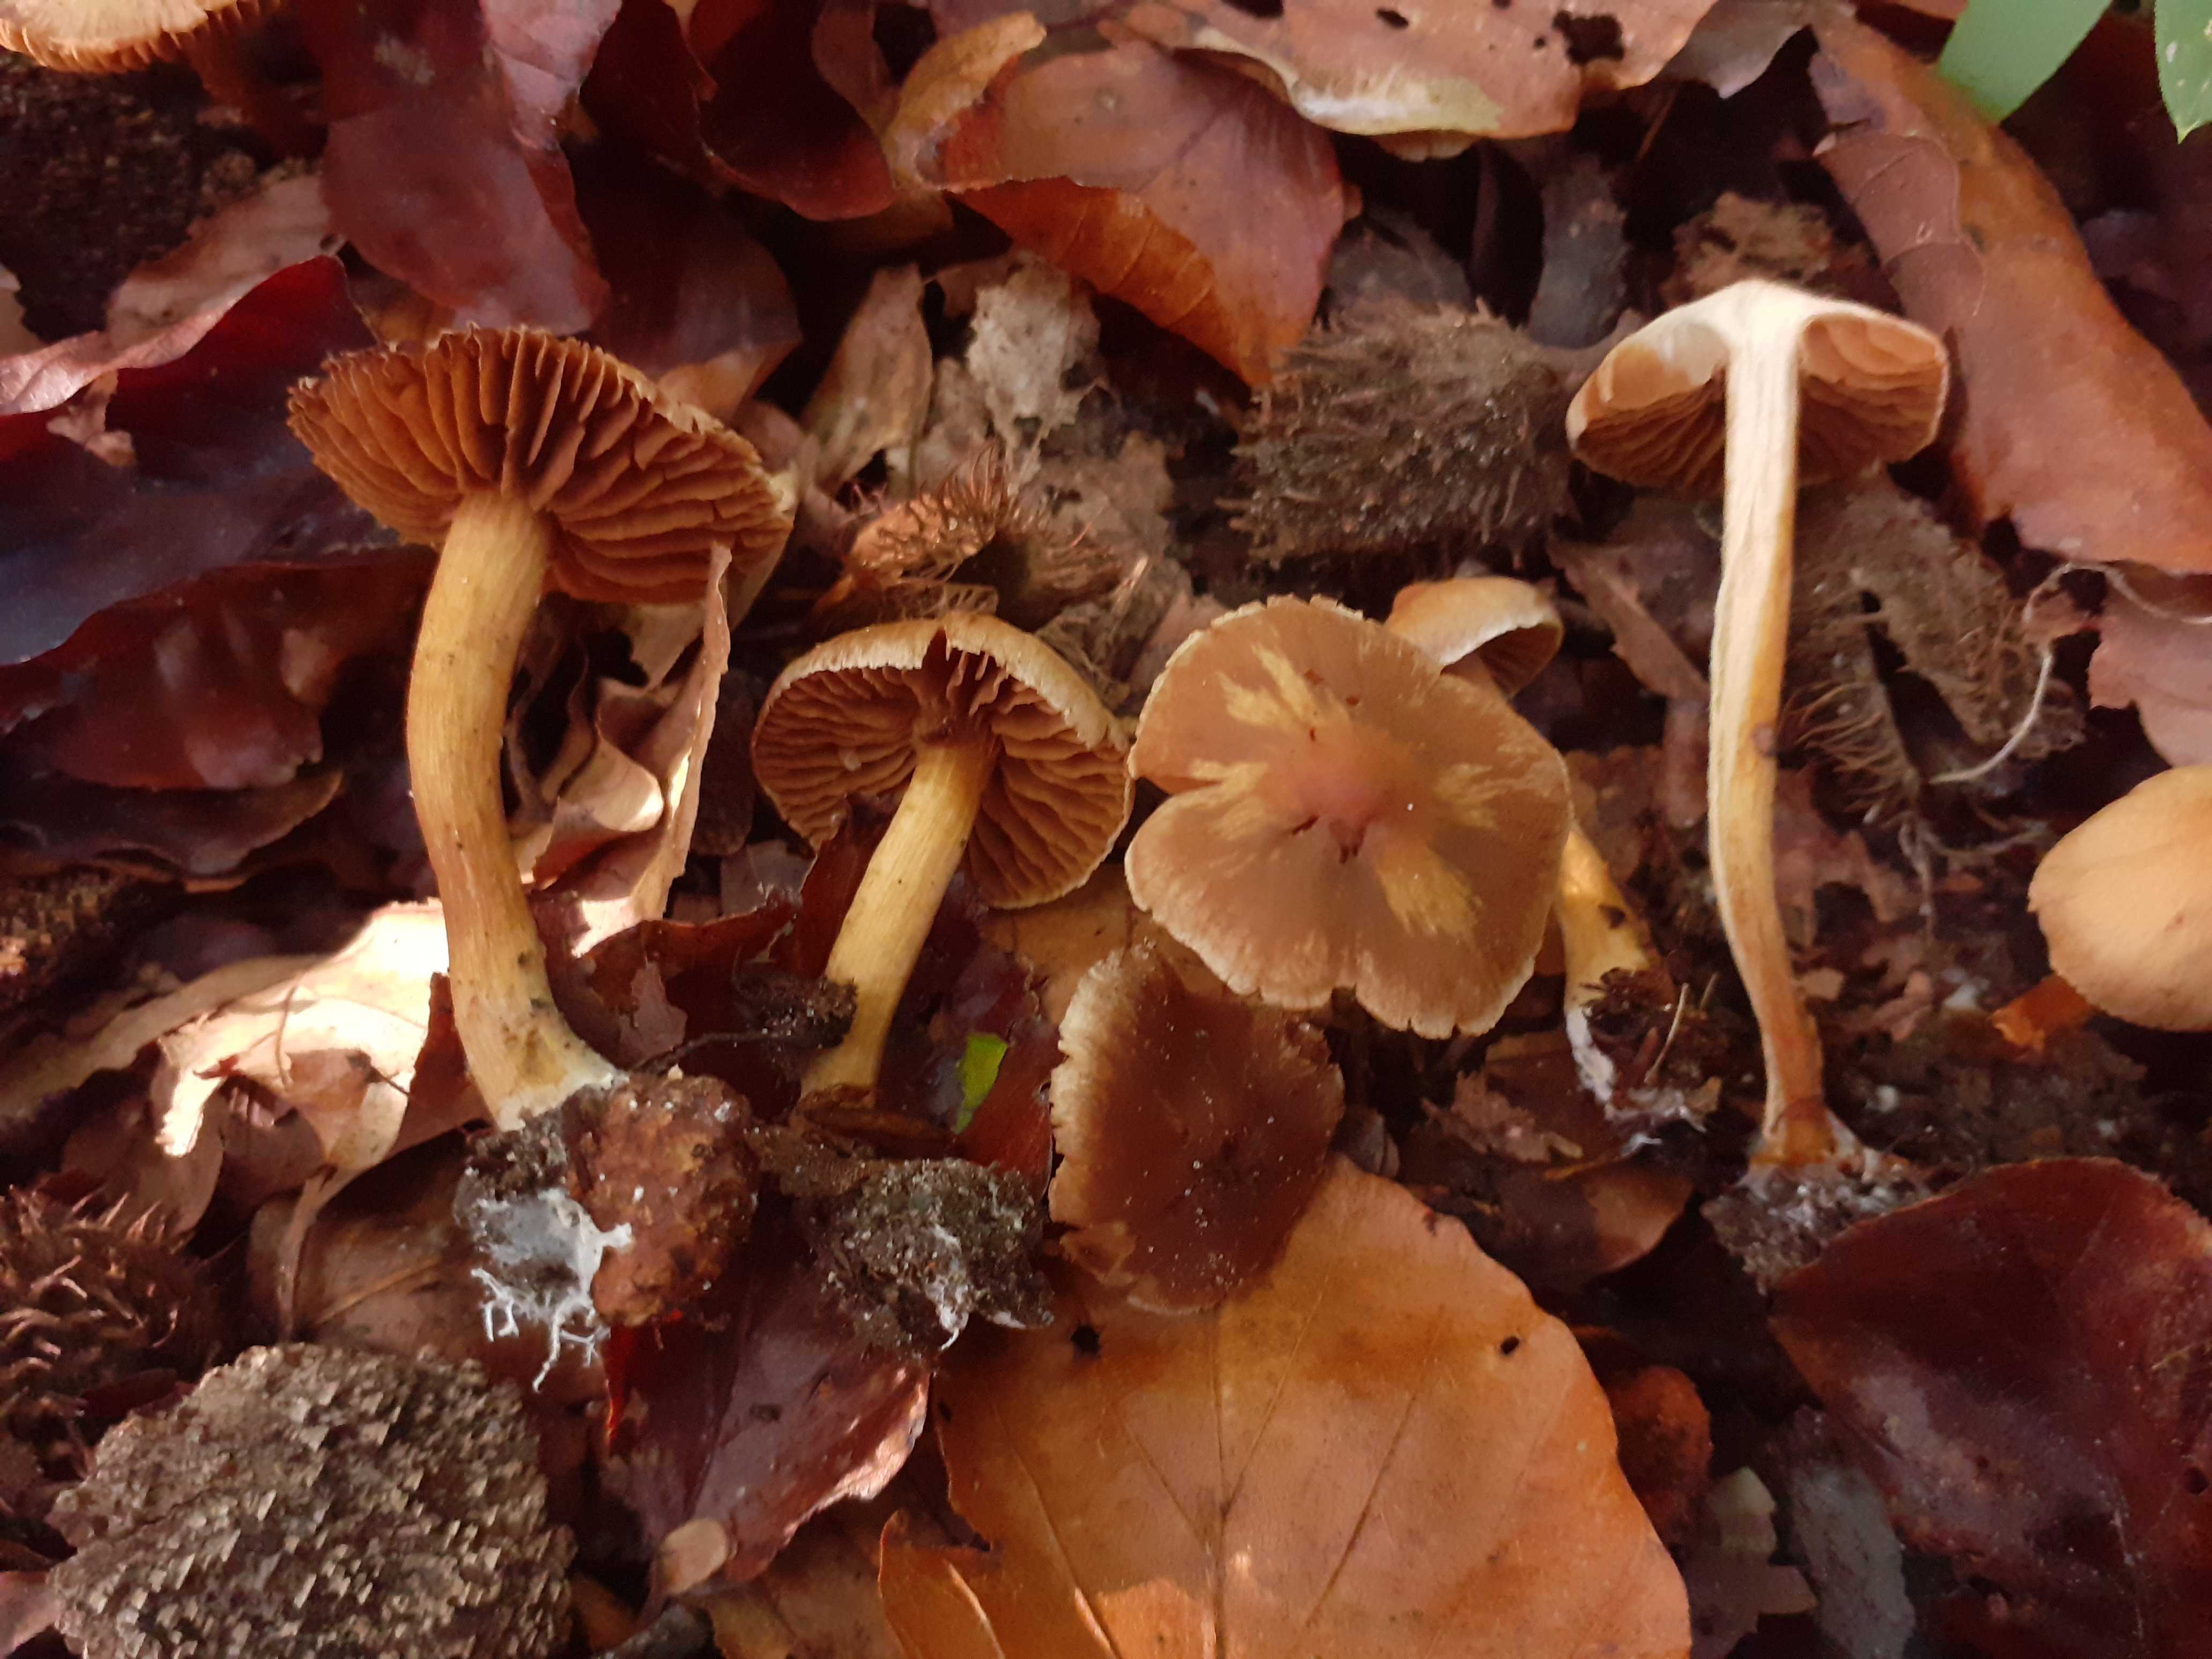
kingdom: Fungi
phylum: Basidiomycota
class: Agaricomycetes
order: Agaricales
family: Cortinariaceae
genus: Cortinarius
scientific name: Cortinarius elaphinicolor
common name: glat slørhat
